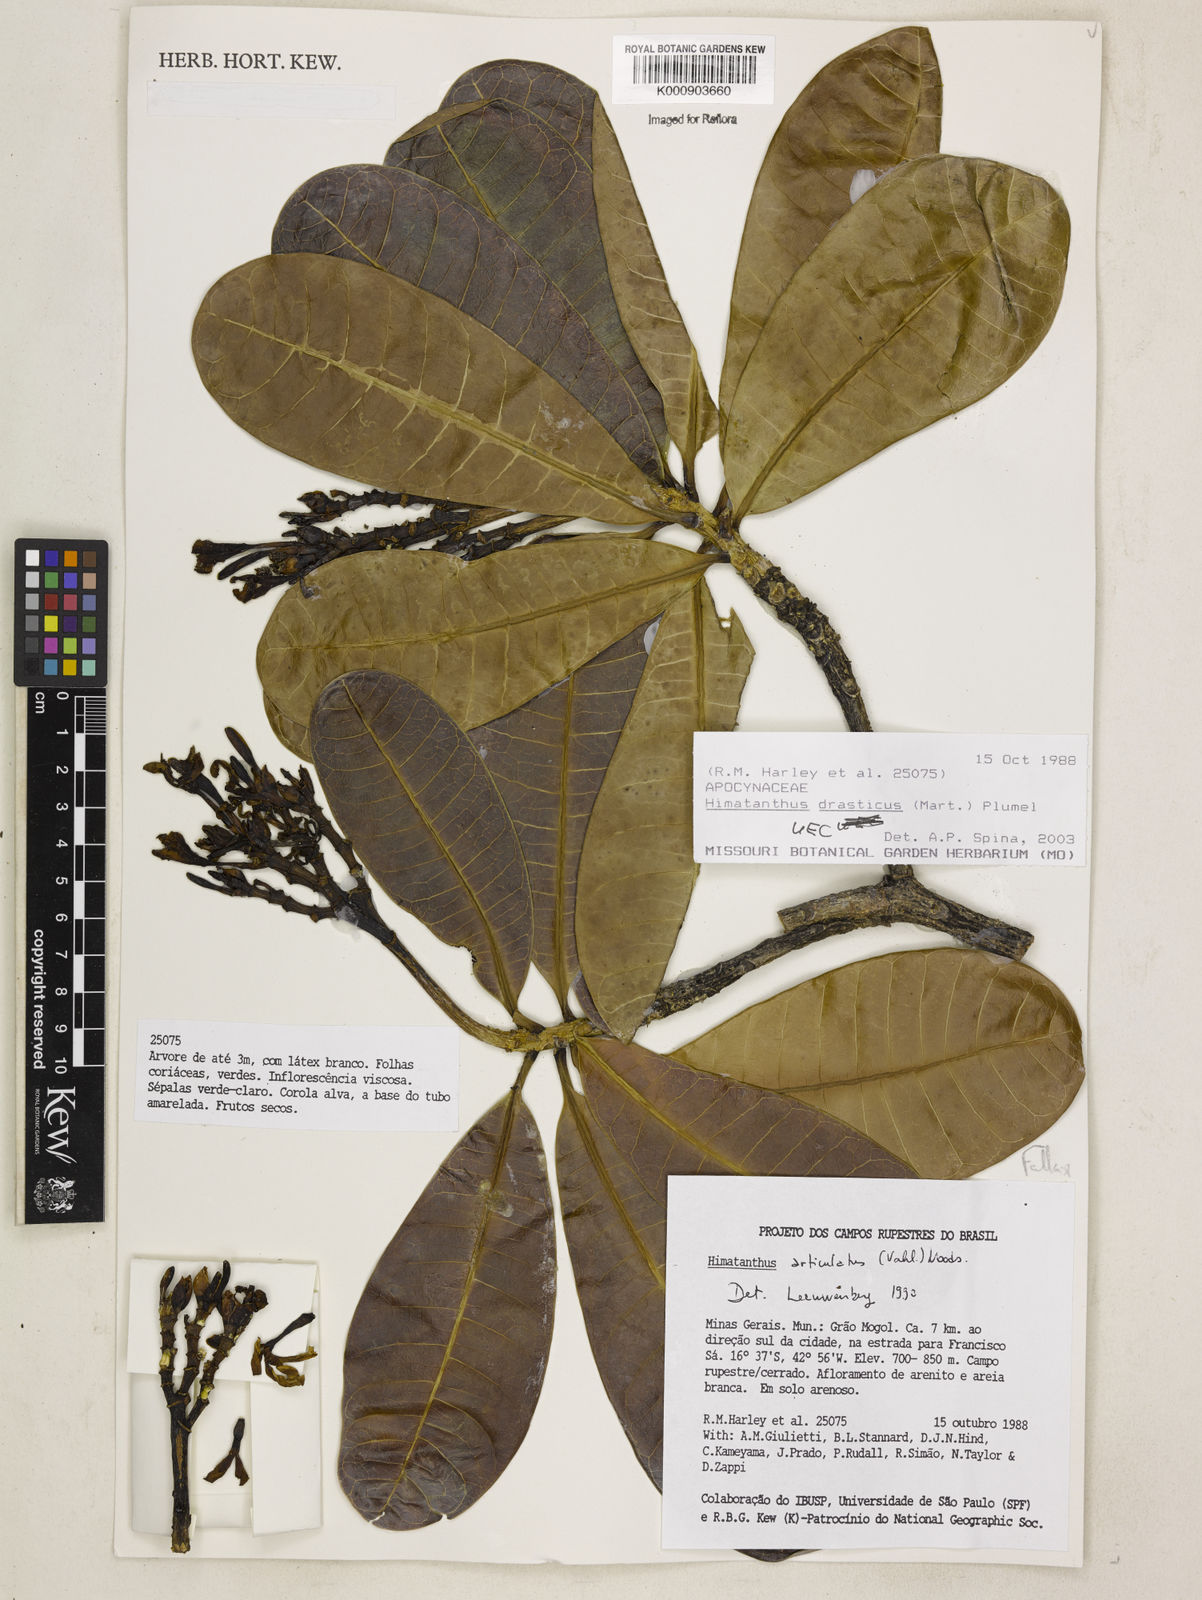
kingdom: Plantae
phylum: Tracheophyta
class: Magnoliopsida
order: Gentianales
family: Apocynaceae
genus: Himatanthus
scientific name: Himatanthus drasticus
